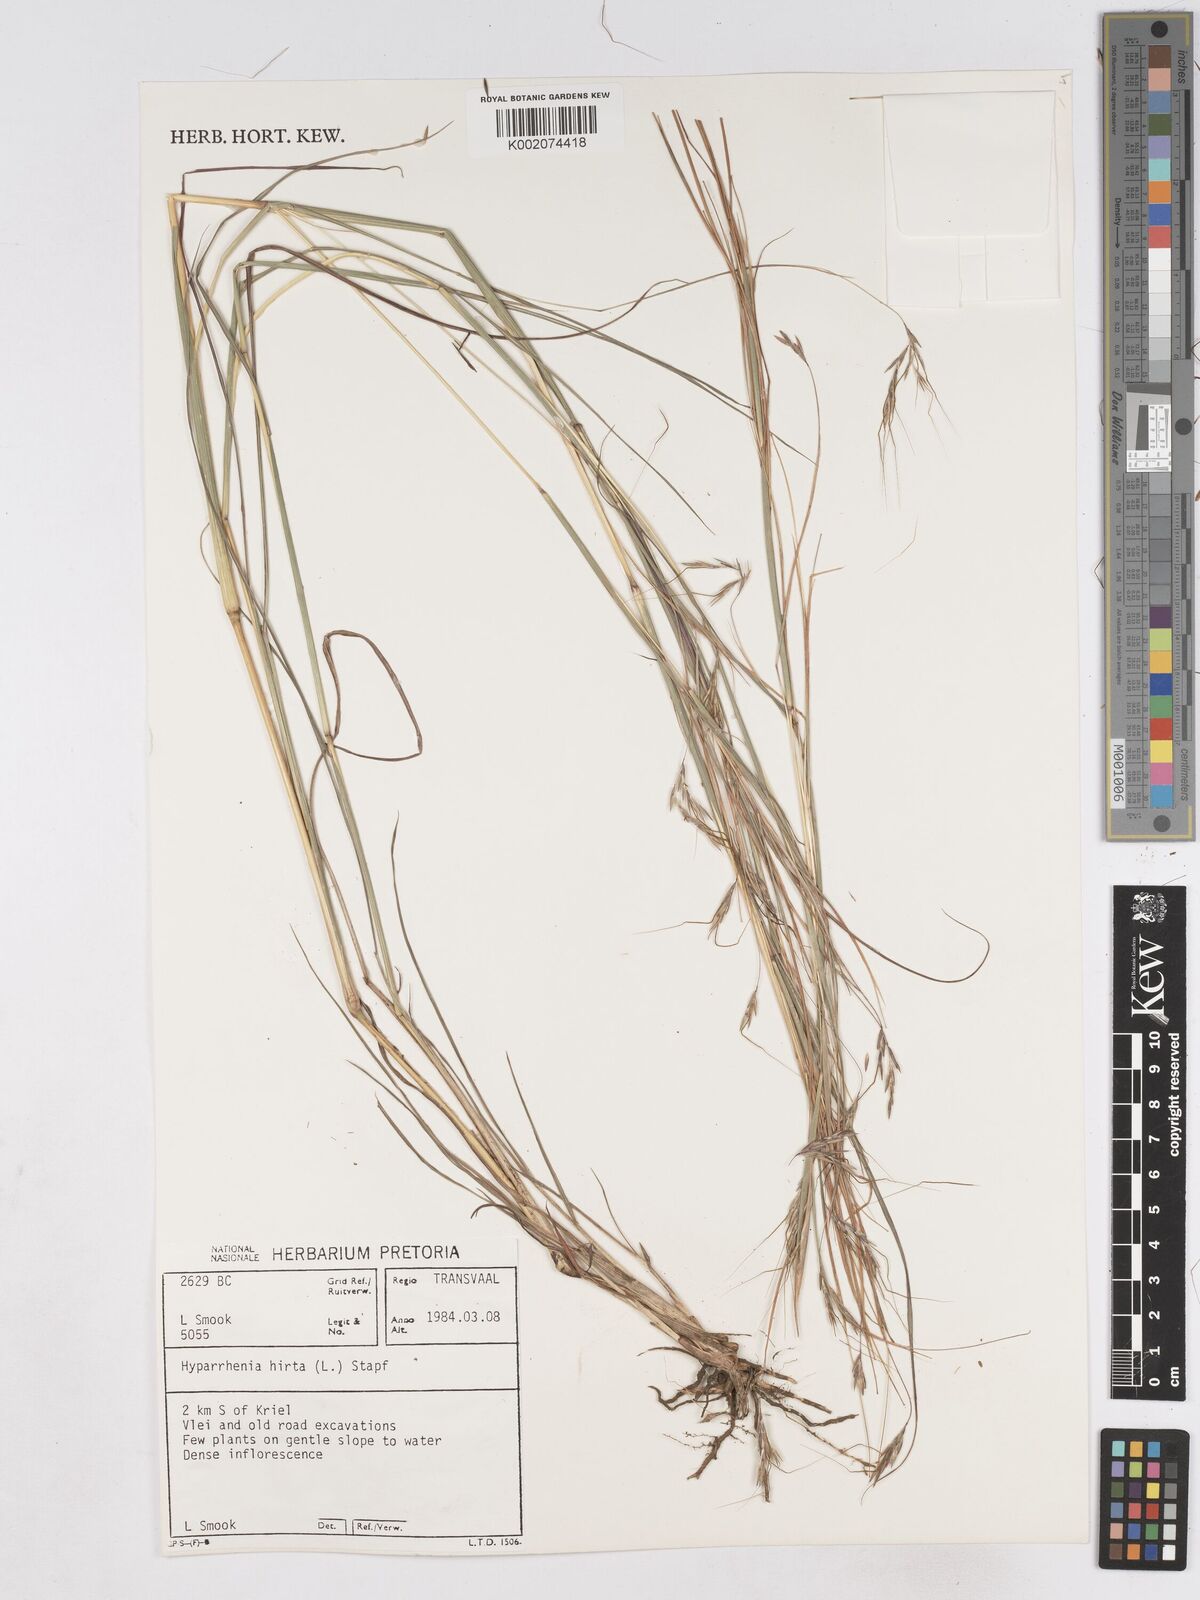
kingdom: Plantae
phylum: Tracheophyta
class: Liliopsida
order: Poales
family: Poaceae
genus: Hyparrhenia
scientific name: Hyparrhenia hirta
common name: Thatching grass
